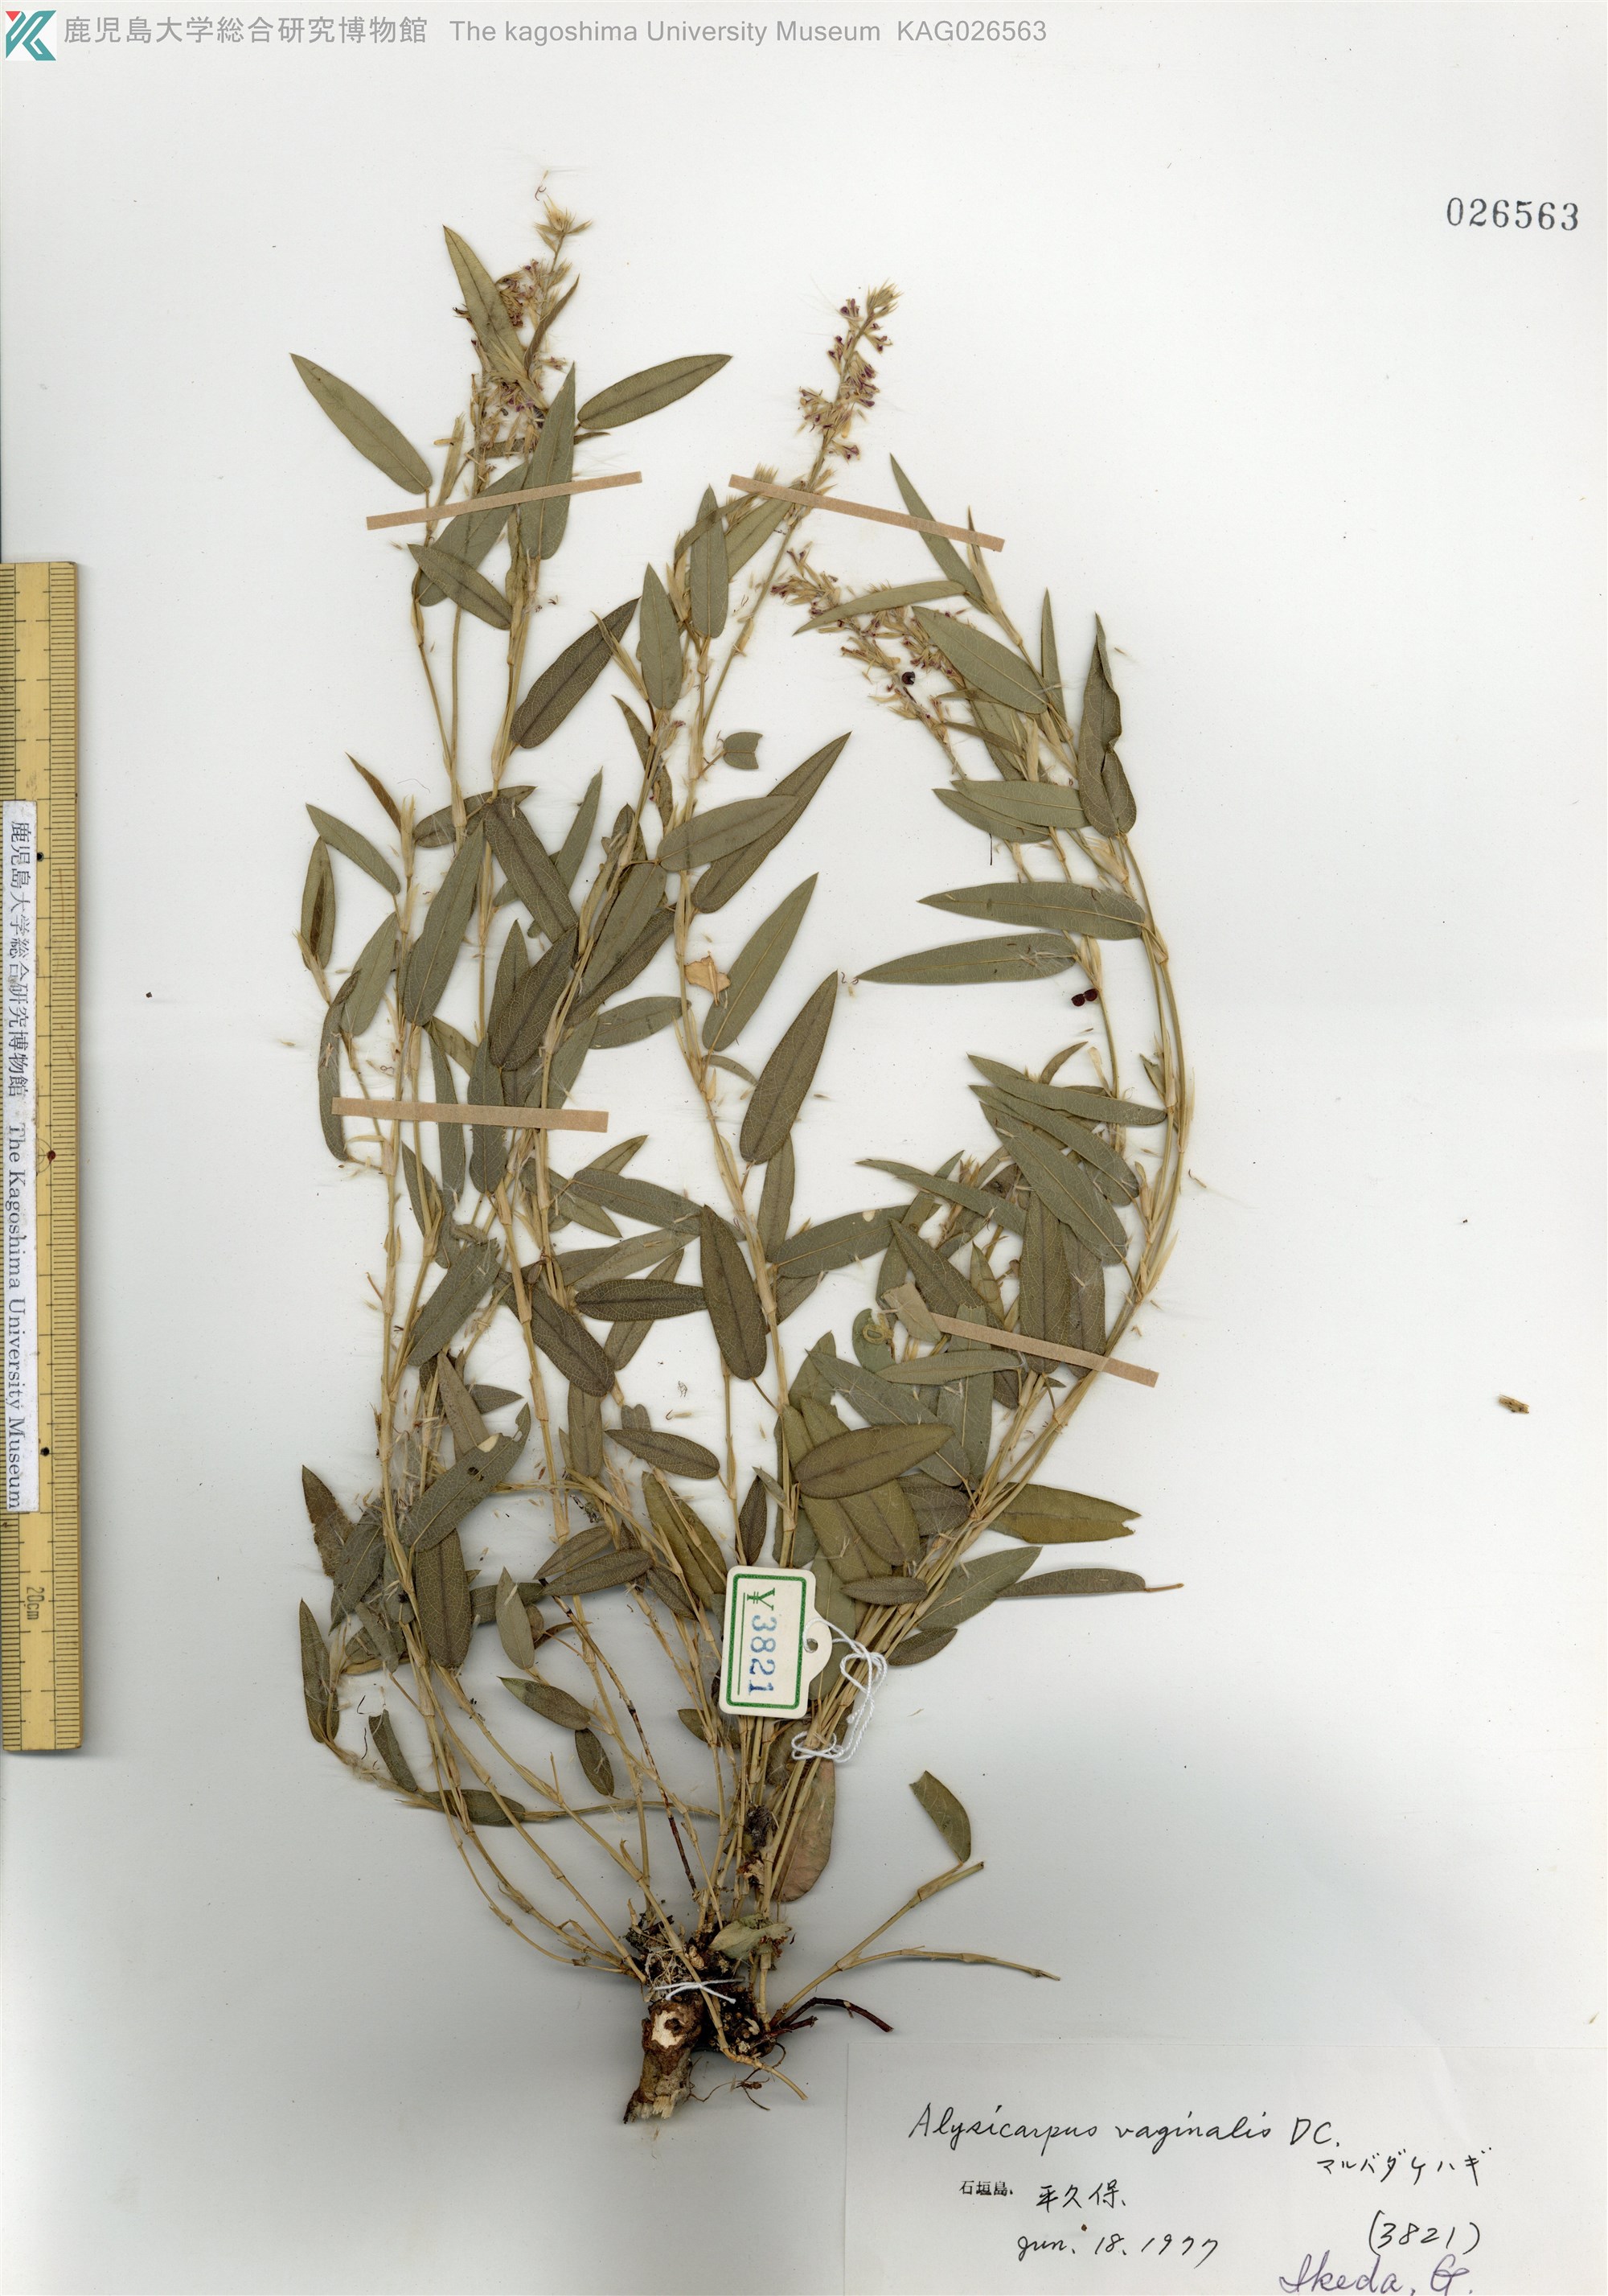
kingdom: Plantae
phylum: Tracheophyta
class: Magnoliopsida
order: Fabales
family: Fabaceae
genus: Alysicarpus
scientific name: Alysicarpus vaginalis
